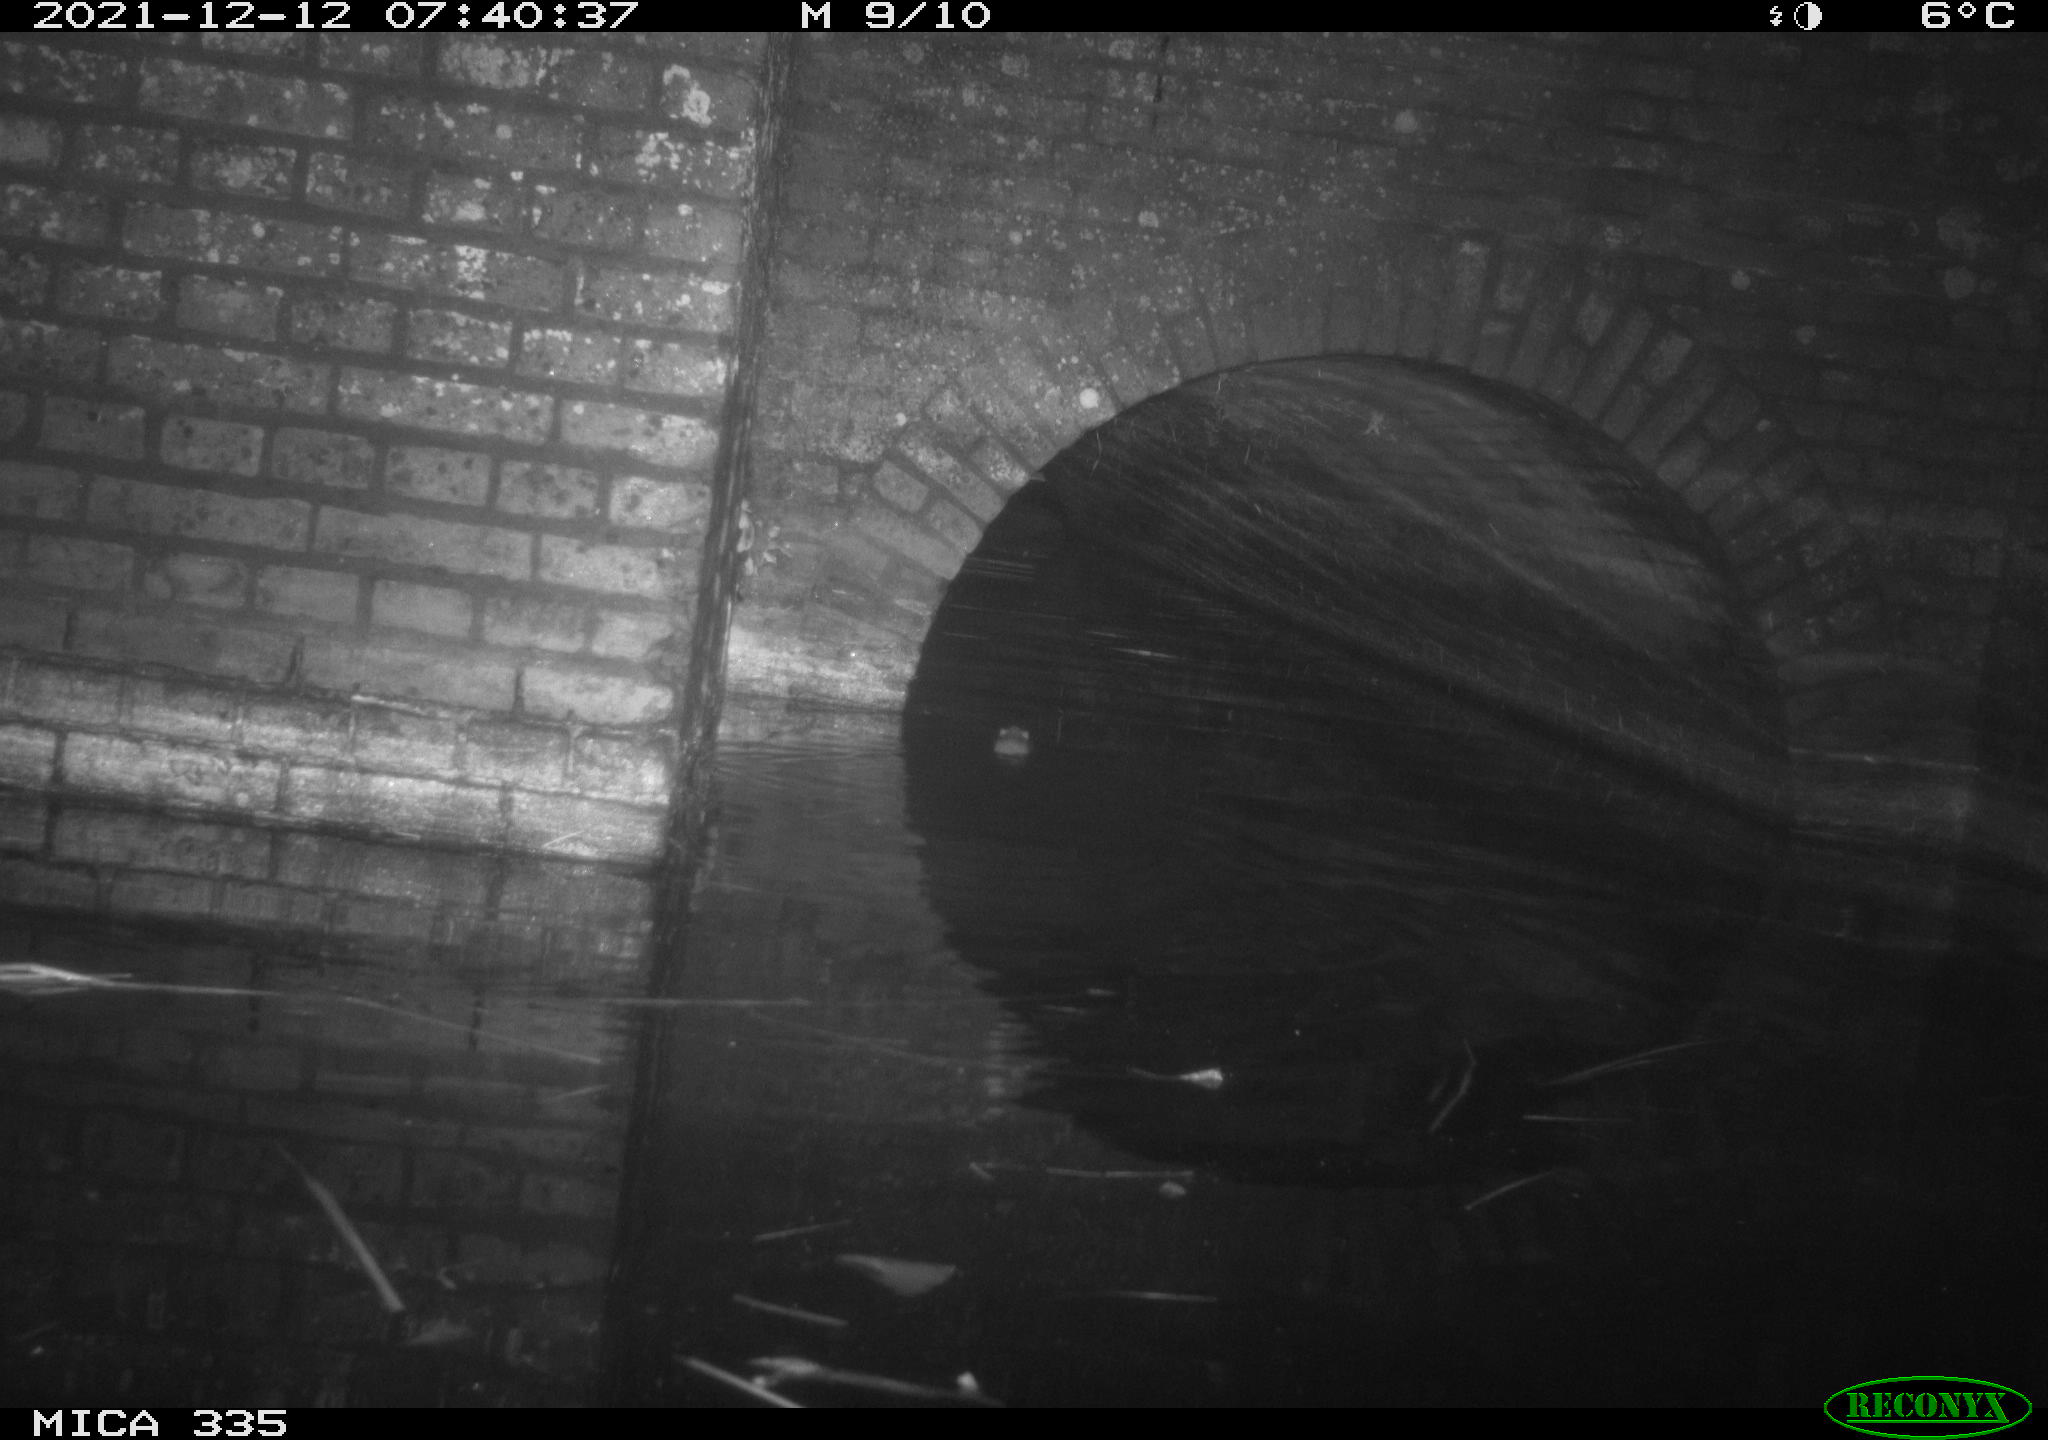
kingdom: Animalia
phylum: Chordata
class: Mammalia
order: Rodentia
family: Muridae
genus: Rattus
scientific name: Rattus norvegicus
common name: Brown rat
